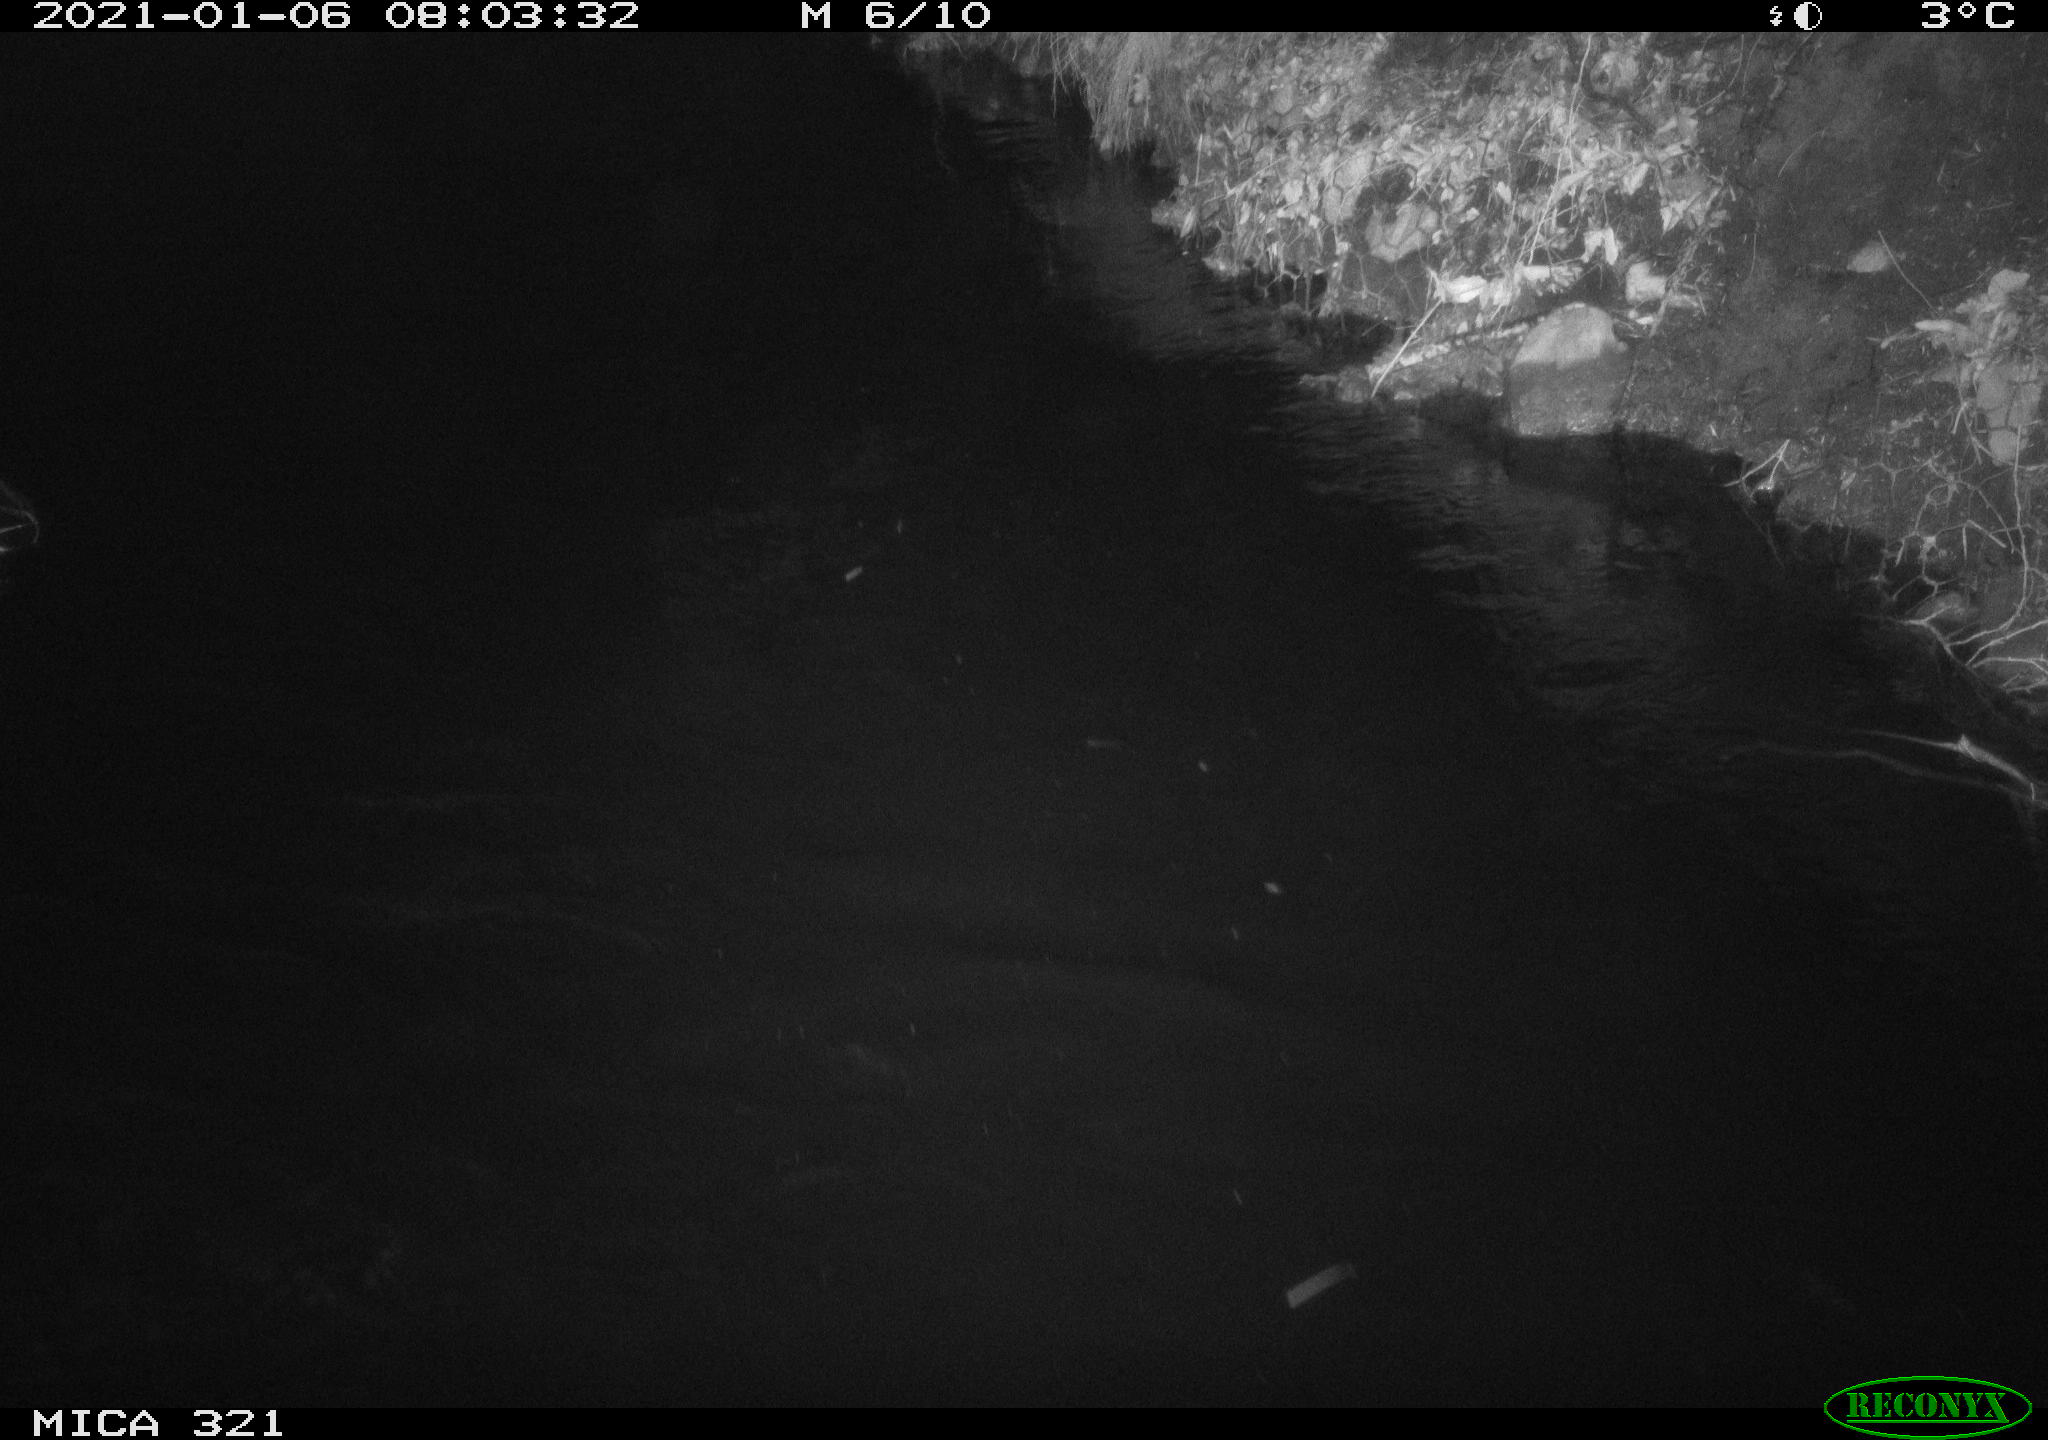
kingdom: Animalia
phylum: Chordata
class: Aves
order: Anseriformes
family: Anatidae
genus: Anas
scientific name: Anas platyrhynchos
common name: Mallard
